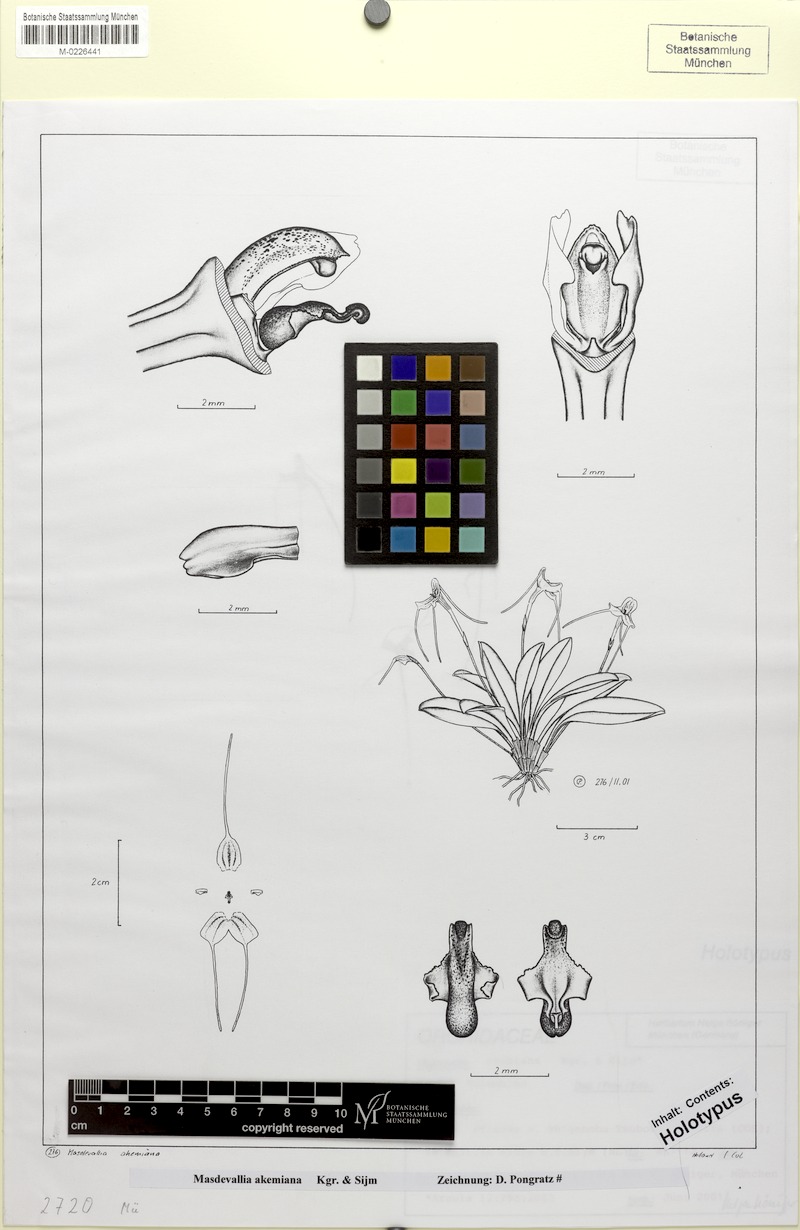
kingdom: Plantae
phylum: Tracheophyta
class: Liliopsida
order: Asparagales
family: Orchidaceae
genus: Masdevallia
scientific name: Masdevallia akemiana
